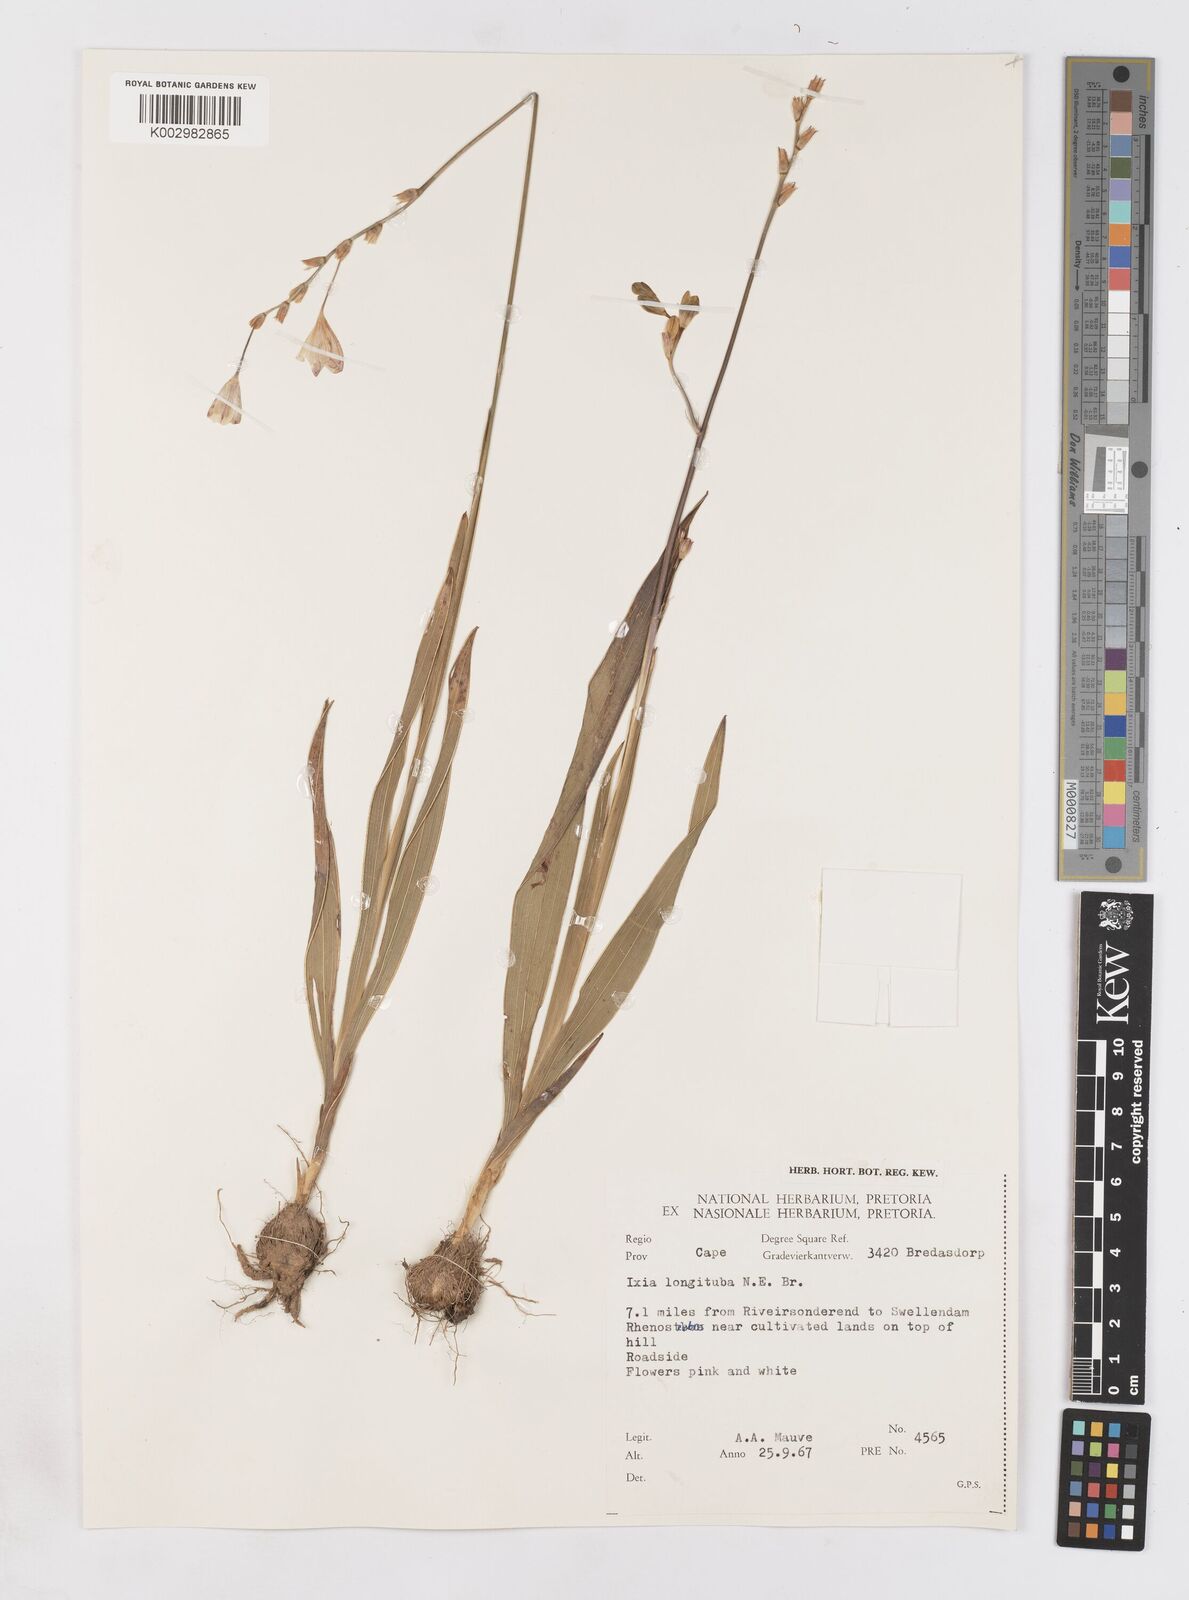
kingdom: Plantae
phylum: Tracheophyta
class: Liliopsida
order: Asparagales
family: Iridaceae
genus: Ixia
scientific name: Ixia longituba
